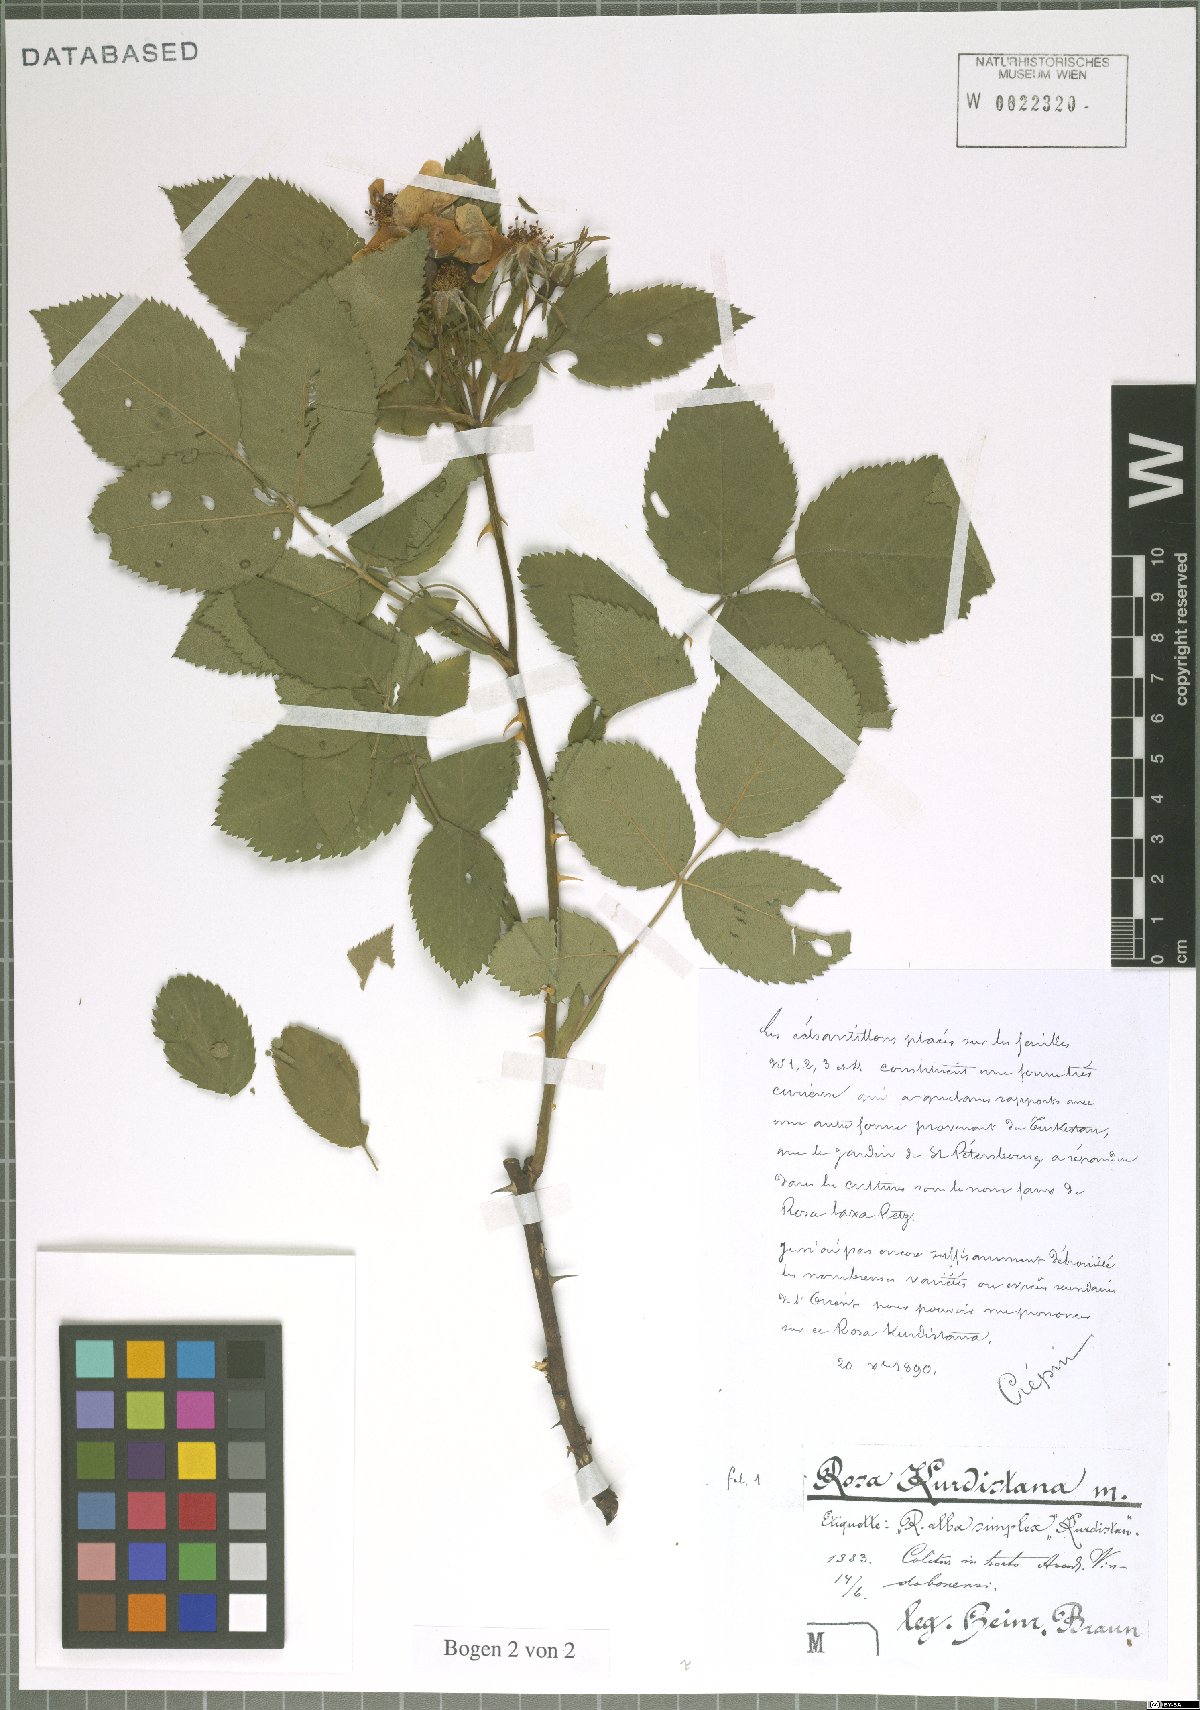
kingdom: Plantae
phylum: Tracheophyta
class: Magnoliopsida
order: Rosales
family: Rosaceae
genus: Rosa
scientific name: Rosa
